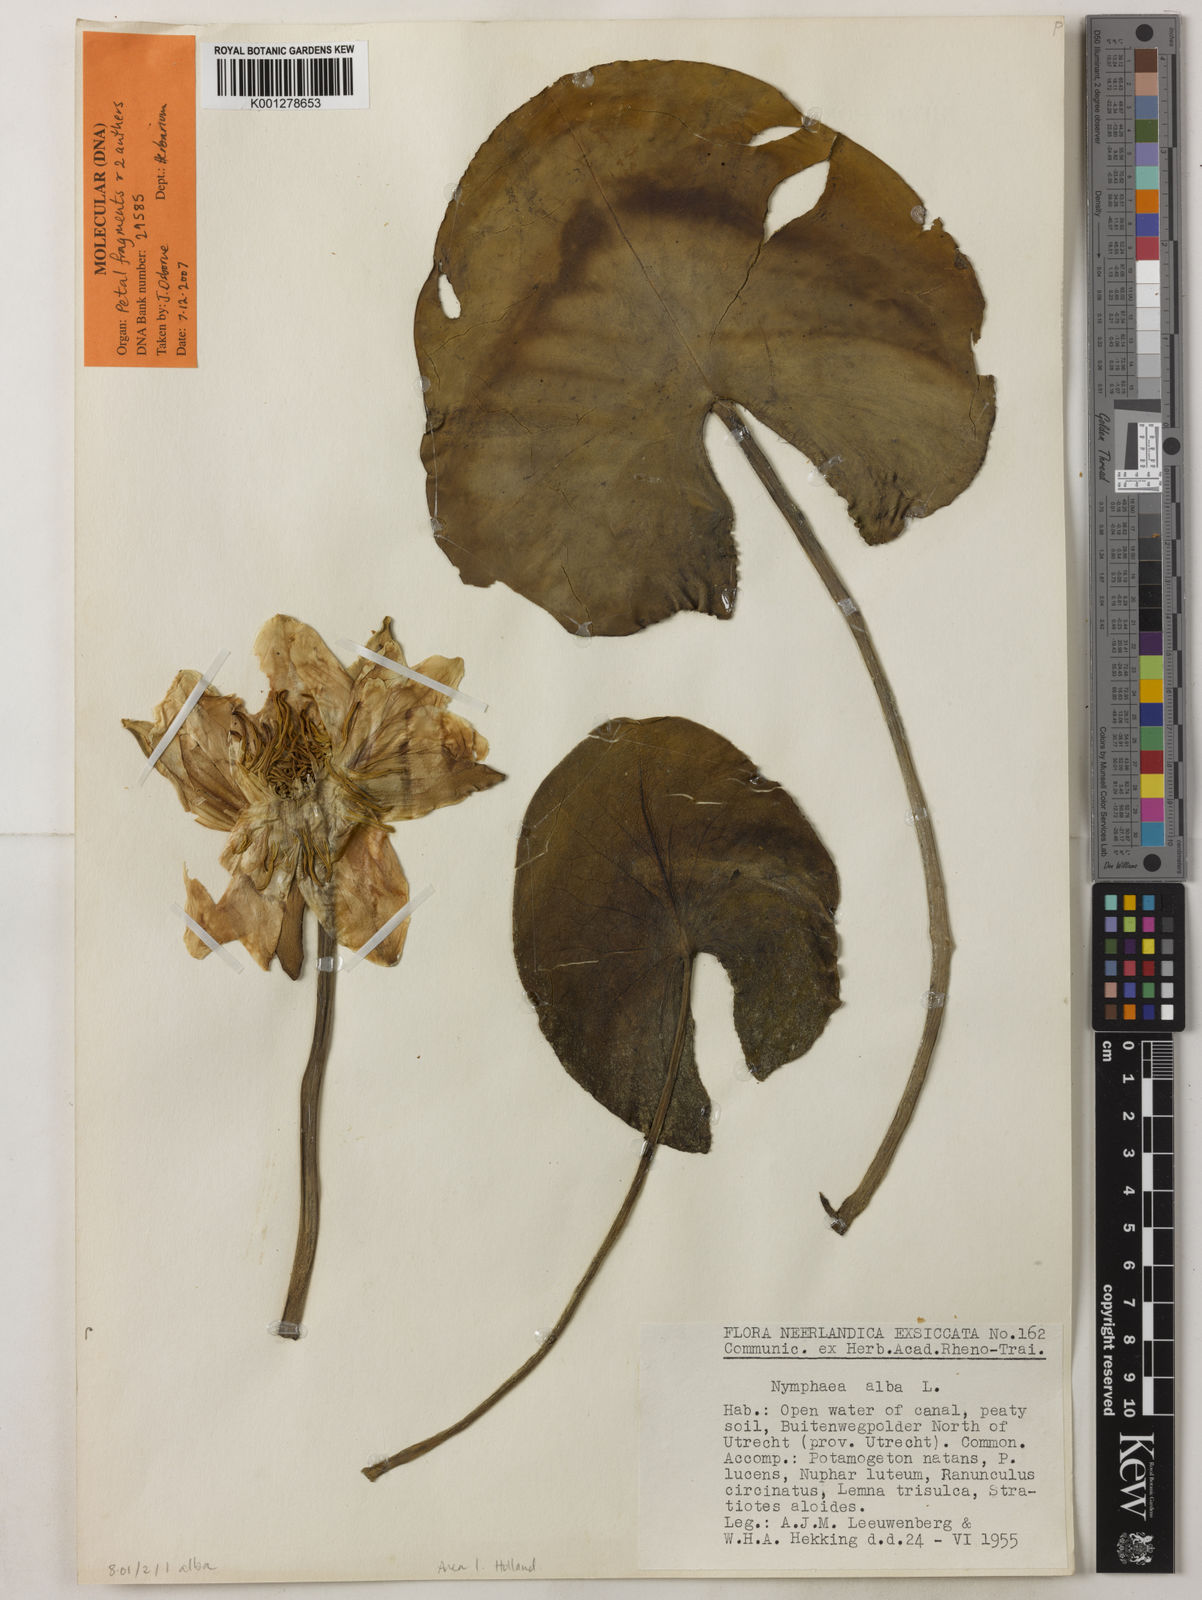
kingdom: Plantae
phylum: Tracheophyta
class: Magnoliopsida
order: Nymphaeales
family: Nymphaeaceae
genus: Nymphaea
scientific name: Nymphaea alba
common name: White water-lily
